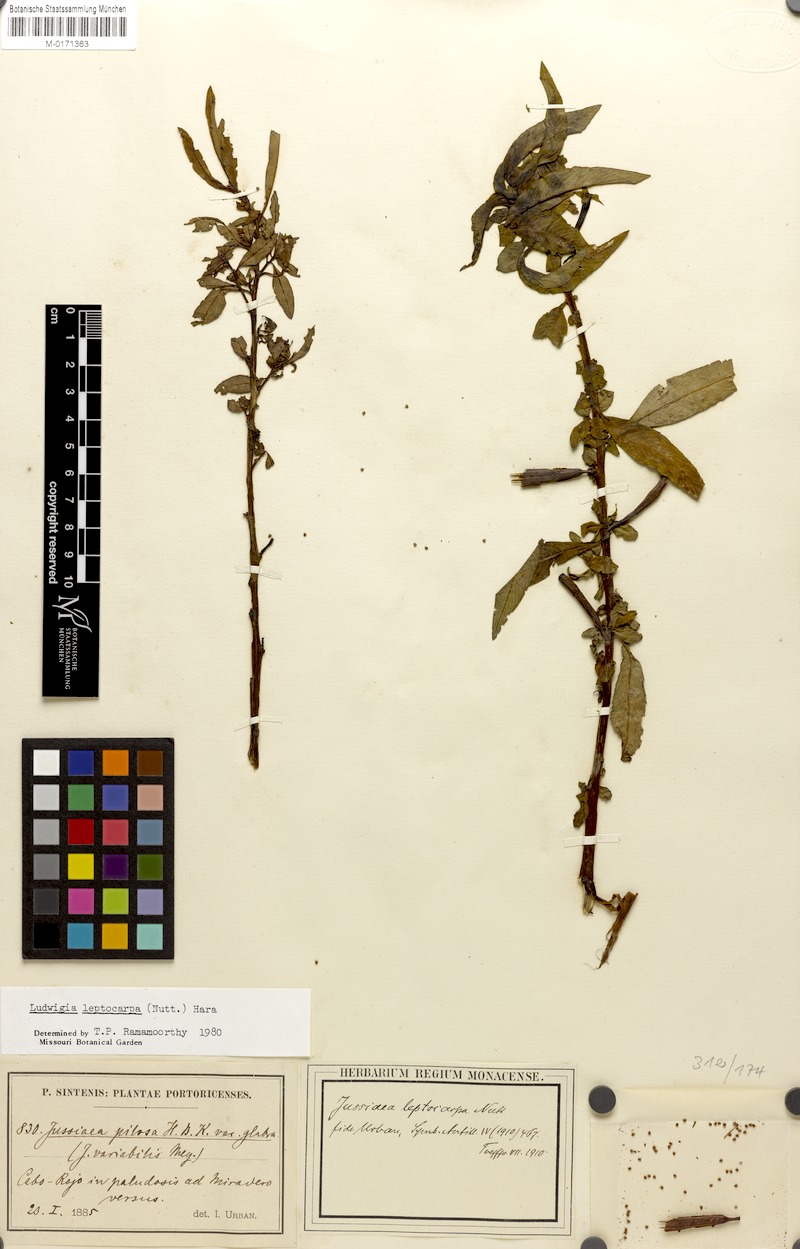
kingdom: Plantae
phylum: Tracheophyta
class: Magnoliopsida
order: Myrtales
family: Onagraceae
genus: Ludwigia
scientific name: Ludwigia leptocarpa
